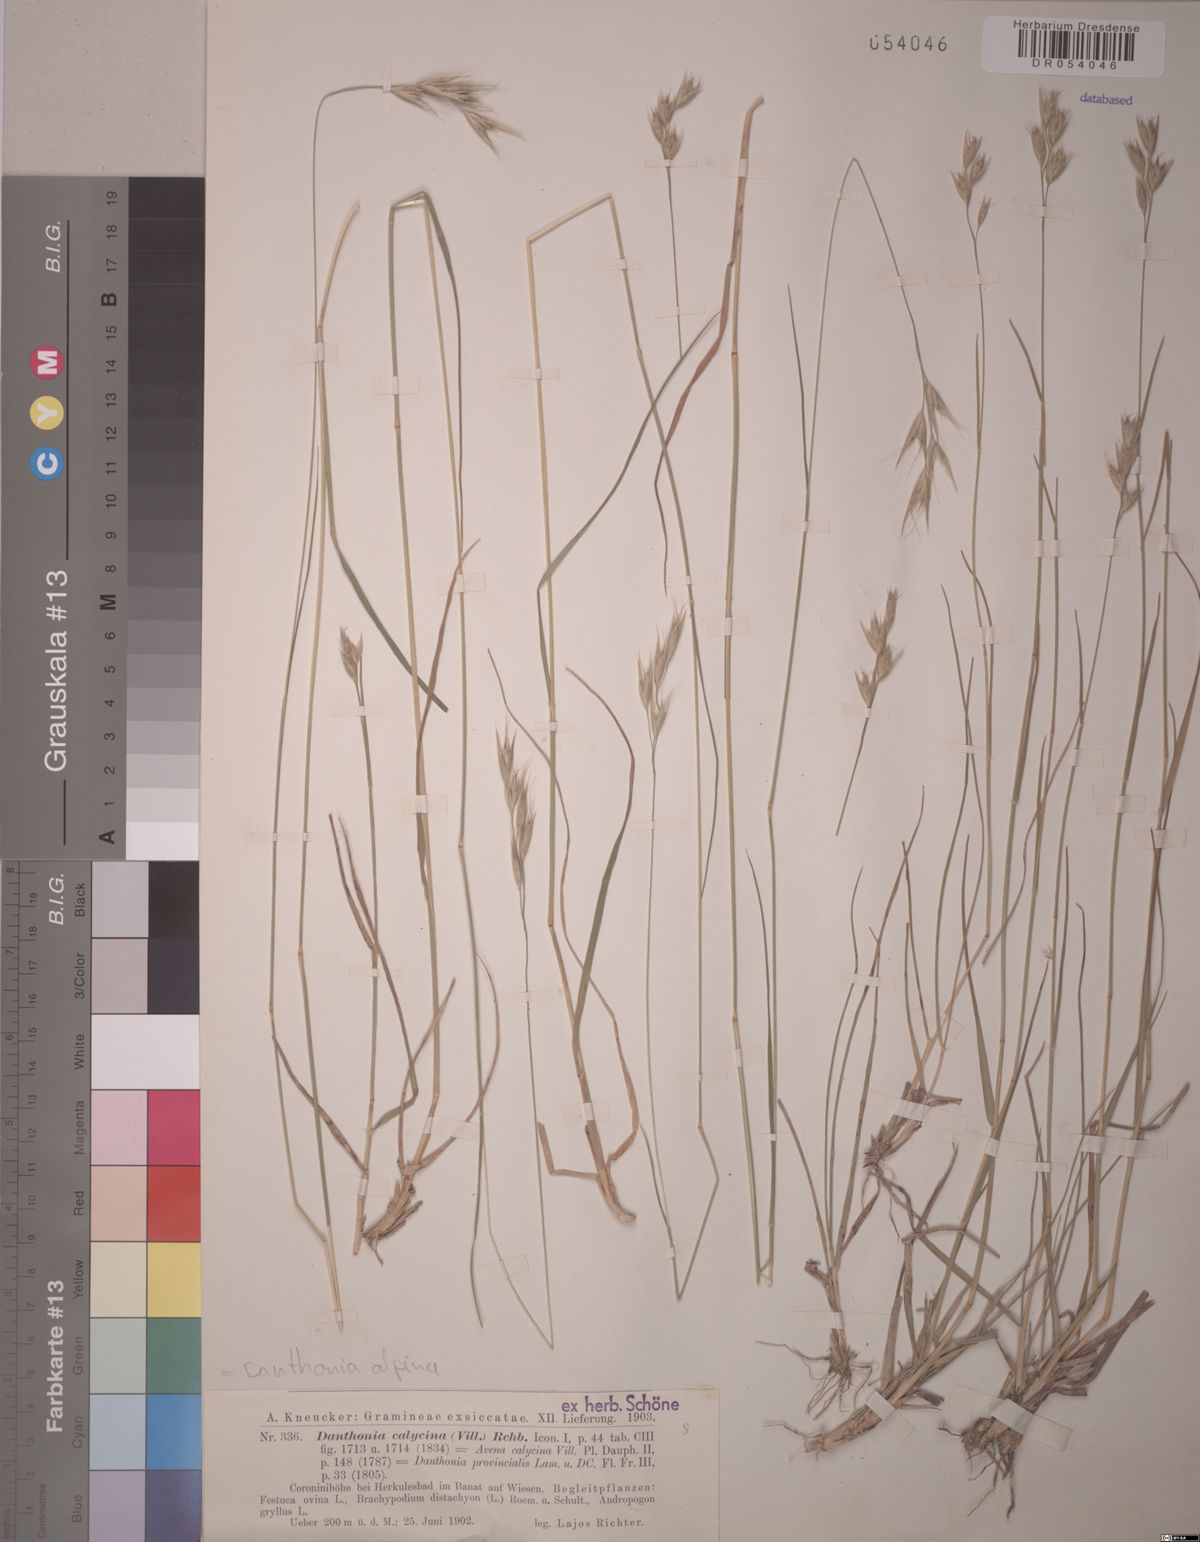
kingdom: Plantae
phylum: Tracheophyta
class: Liliopsida
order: Poales
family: Poaceae
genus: Danthonia
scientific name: Danthonia alpina
